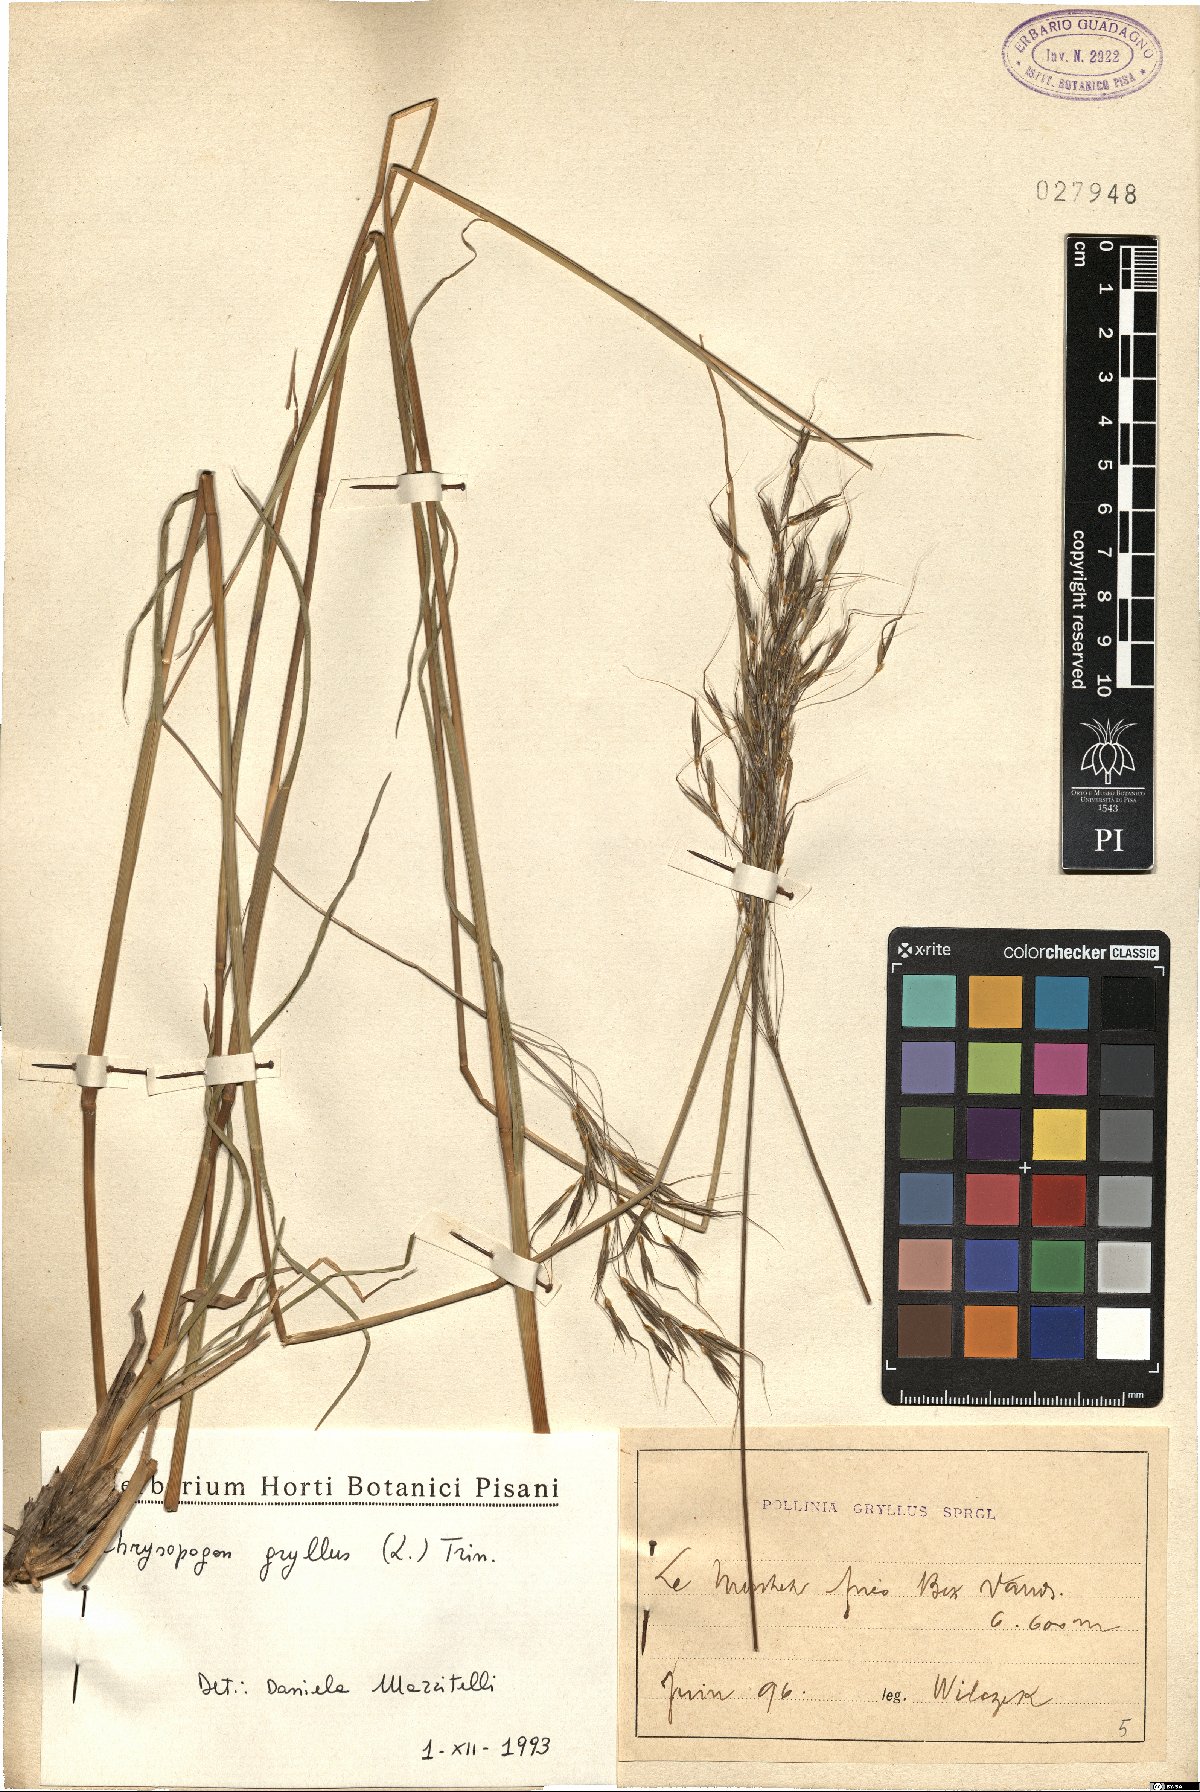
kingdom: Plantae
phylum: Tracheophyta
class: Liliopsida
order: Poales
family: Poaceae
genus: Chrysopogon
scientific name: Chrysopogon gryllus
